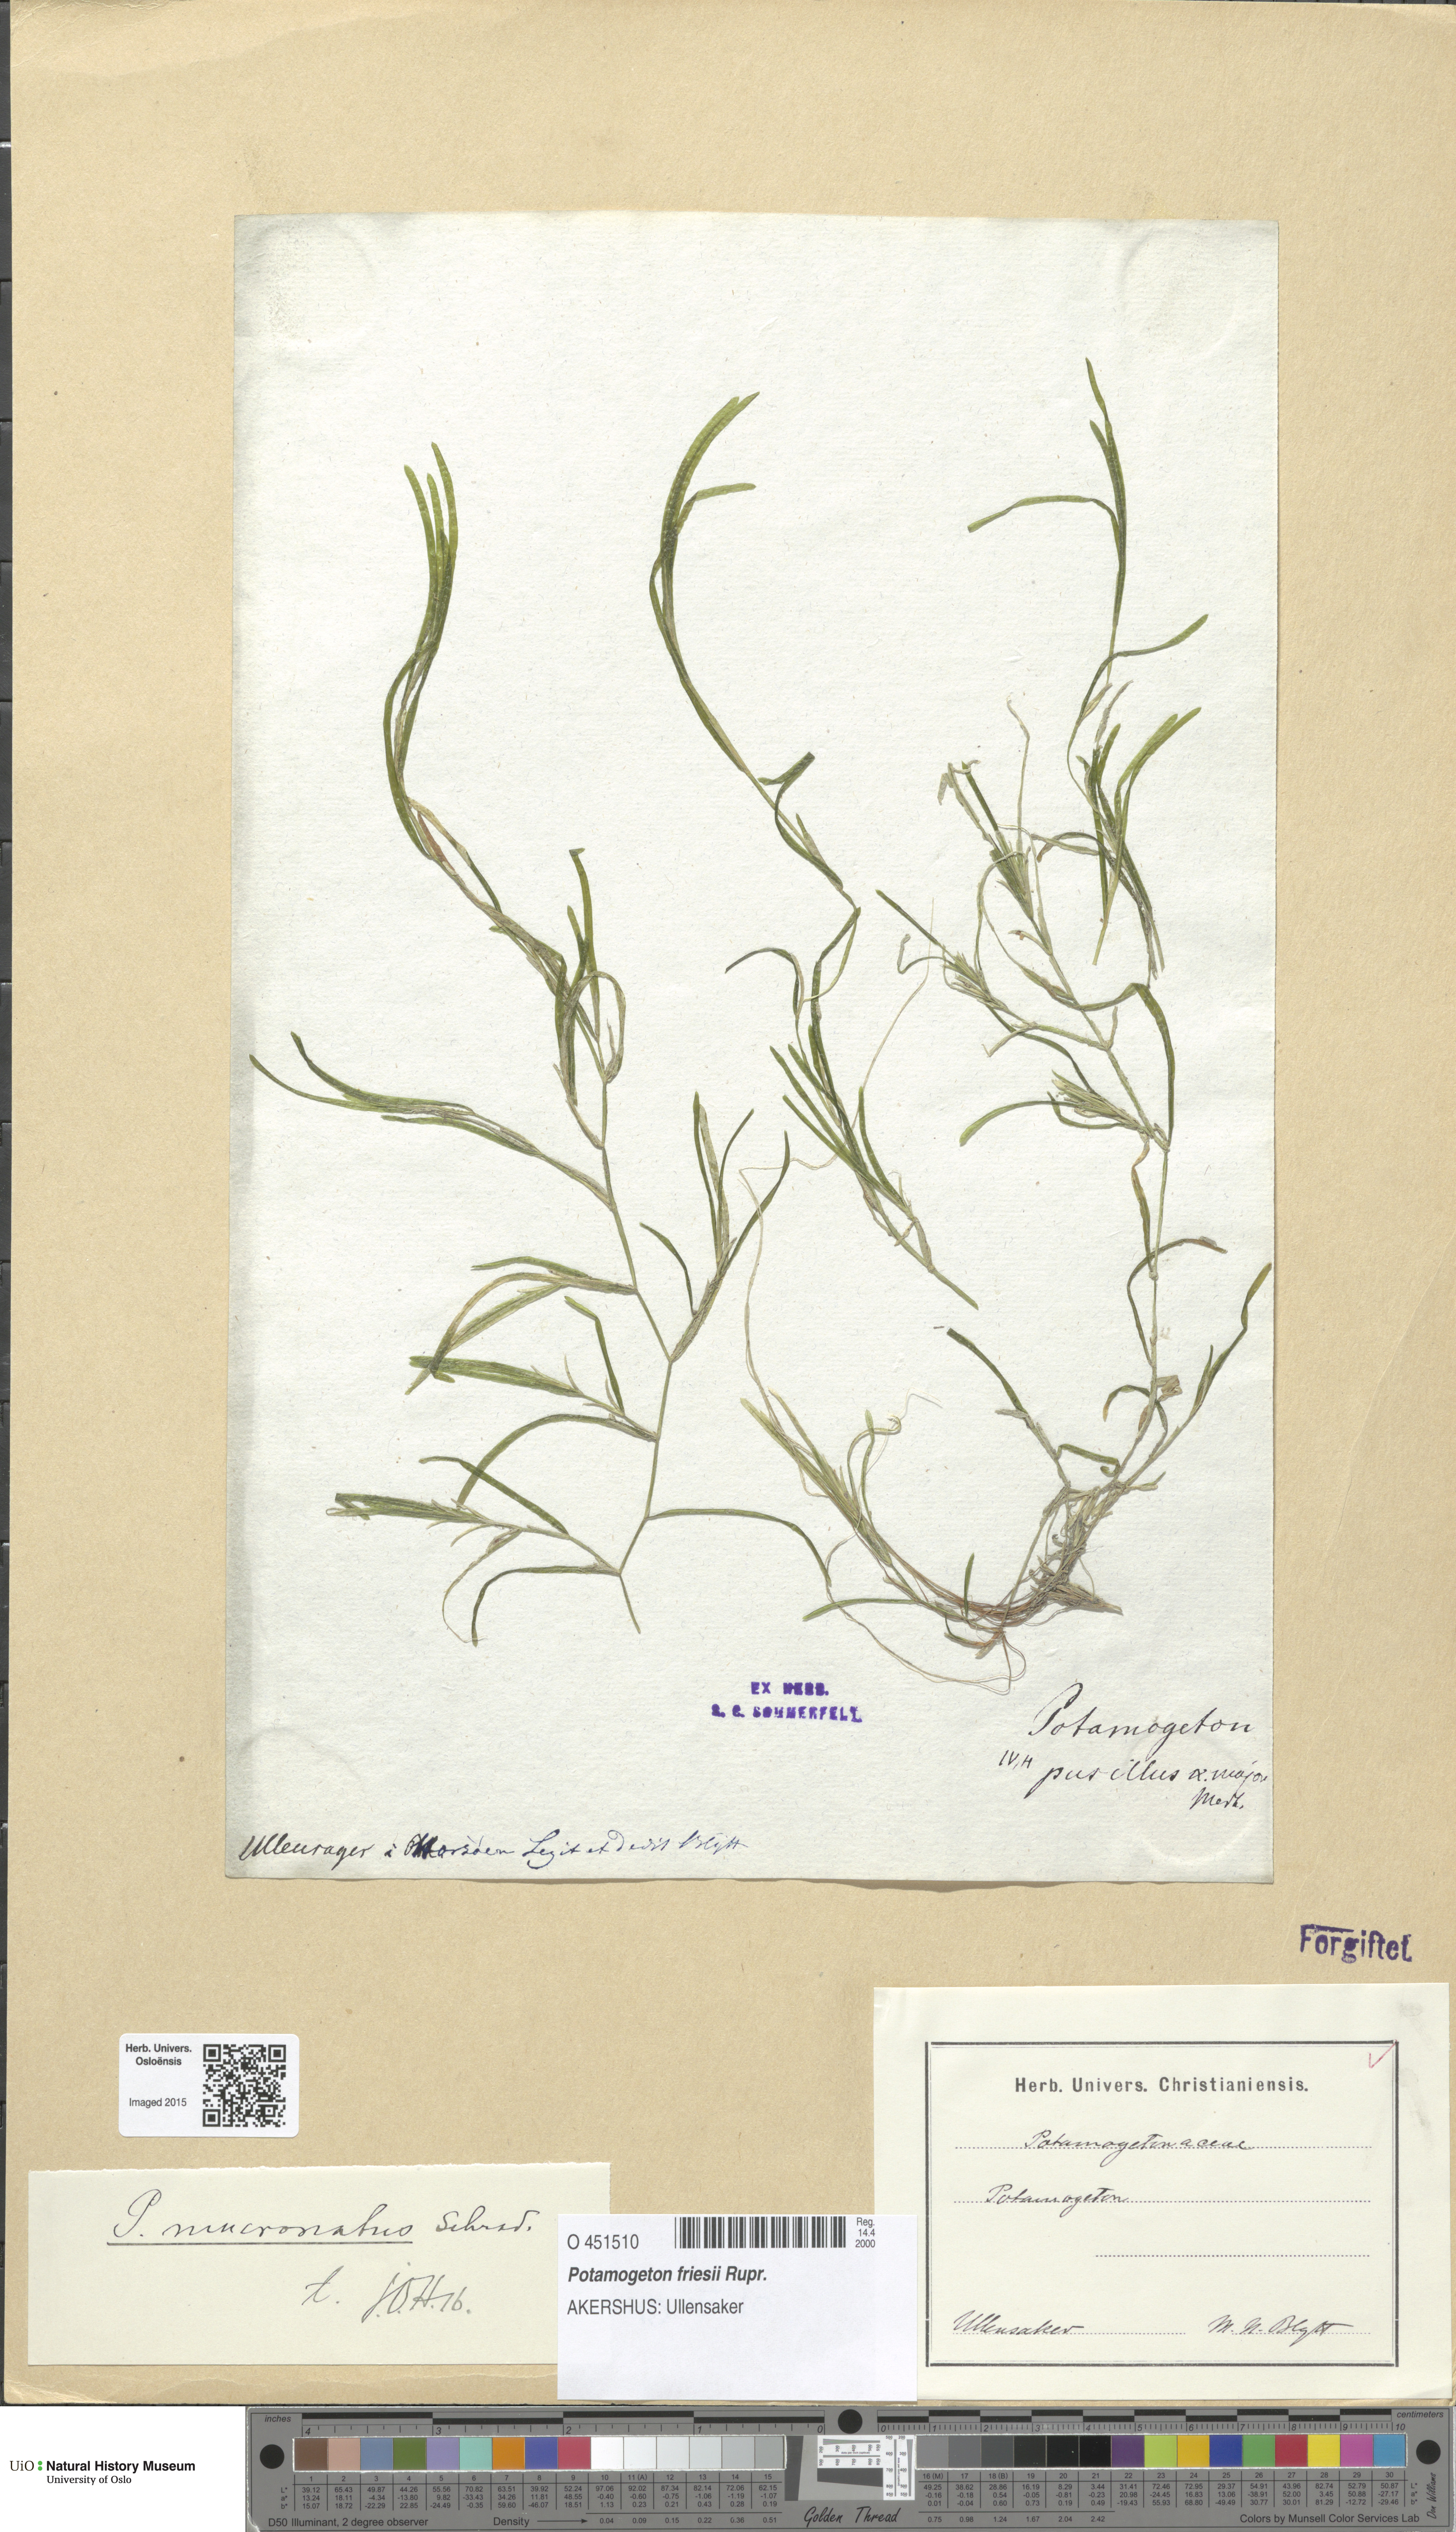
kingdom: Plantae
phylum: Tracheophyta
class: Liliopsida
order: Alismatales
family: Potamogetonaceae
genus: Potamogeton
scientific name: Potamogeton friesii
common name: Flat-stalked pondweed
